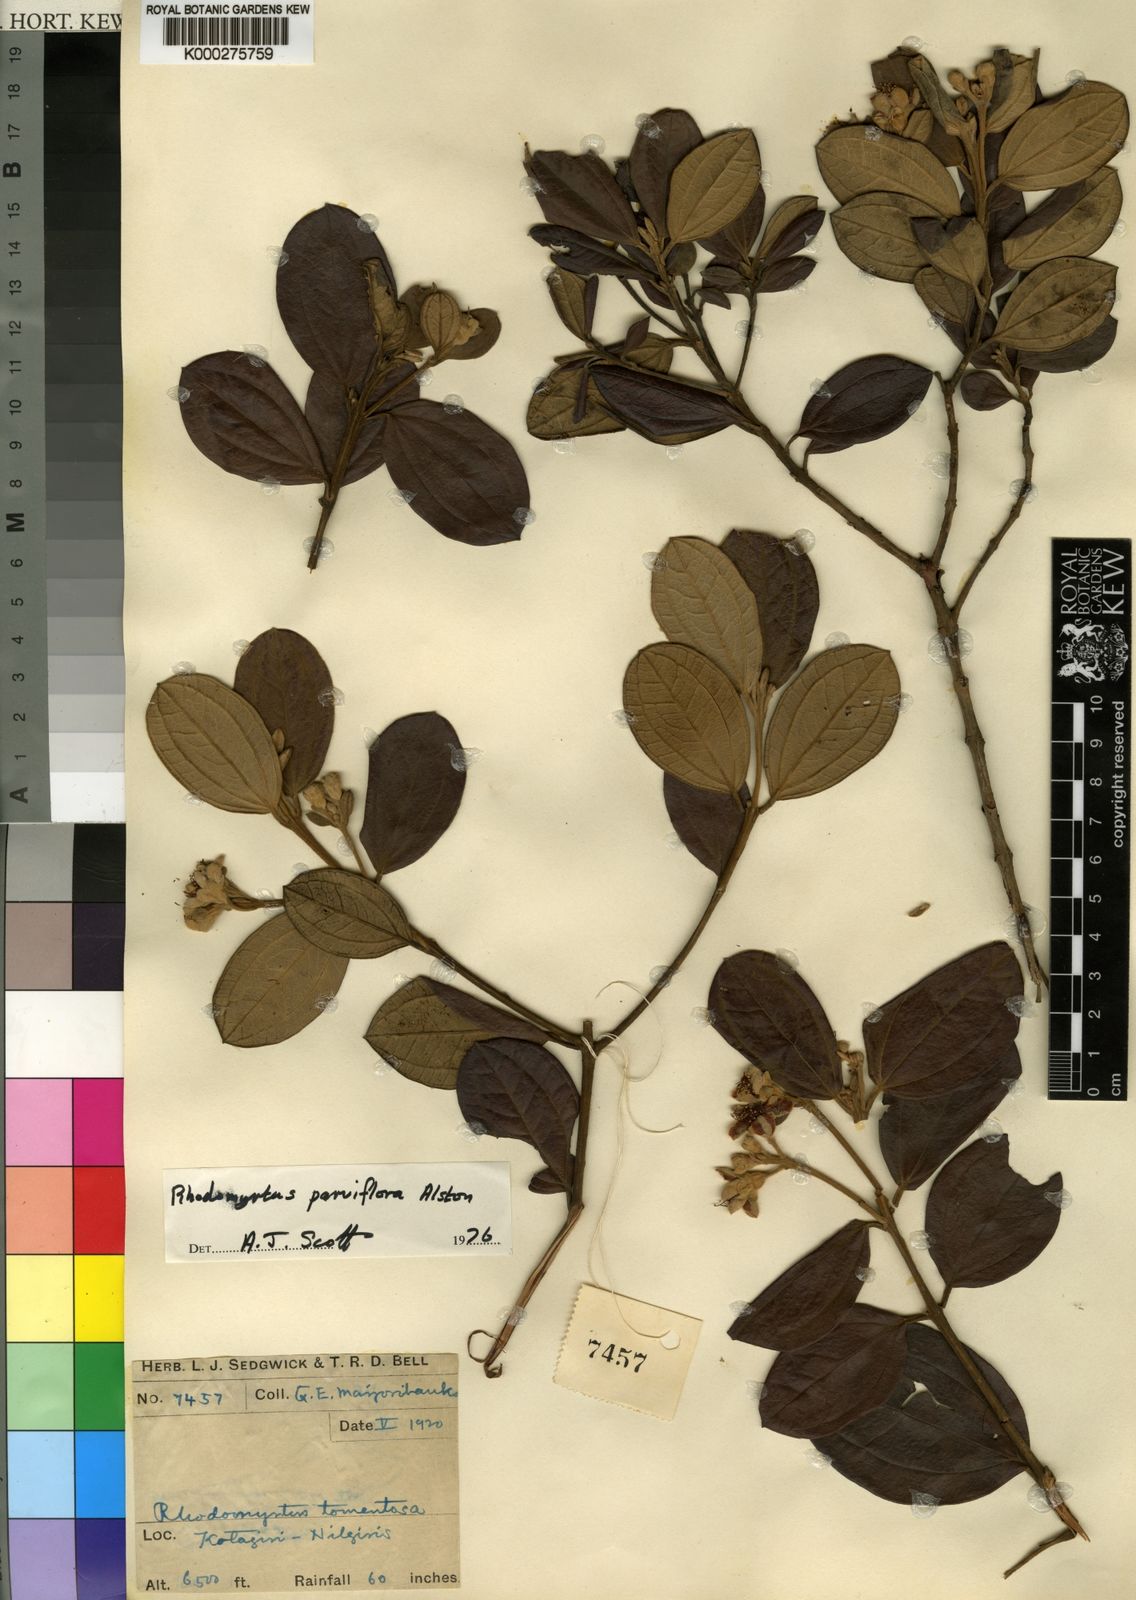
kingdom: Plantae
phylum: Tracheophyta
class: Magnoliopsida
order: Myrtales
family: Myrtaceae
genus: Rhodomyrtus
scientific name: Rhodomyrtus tomentosa
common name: Rose myrtle
